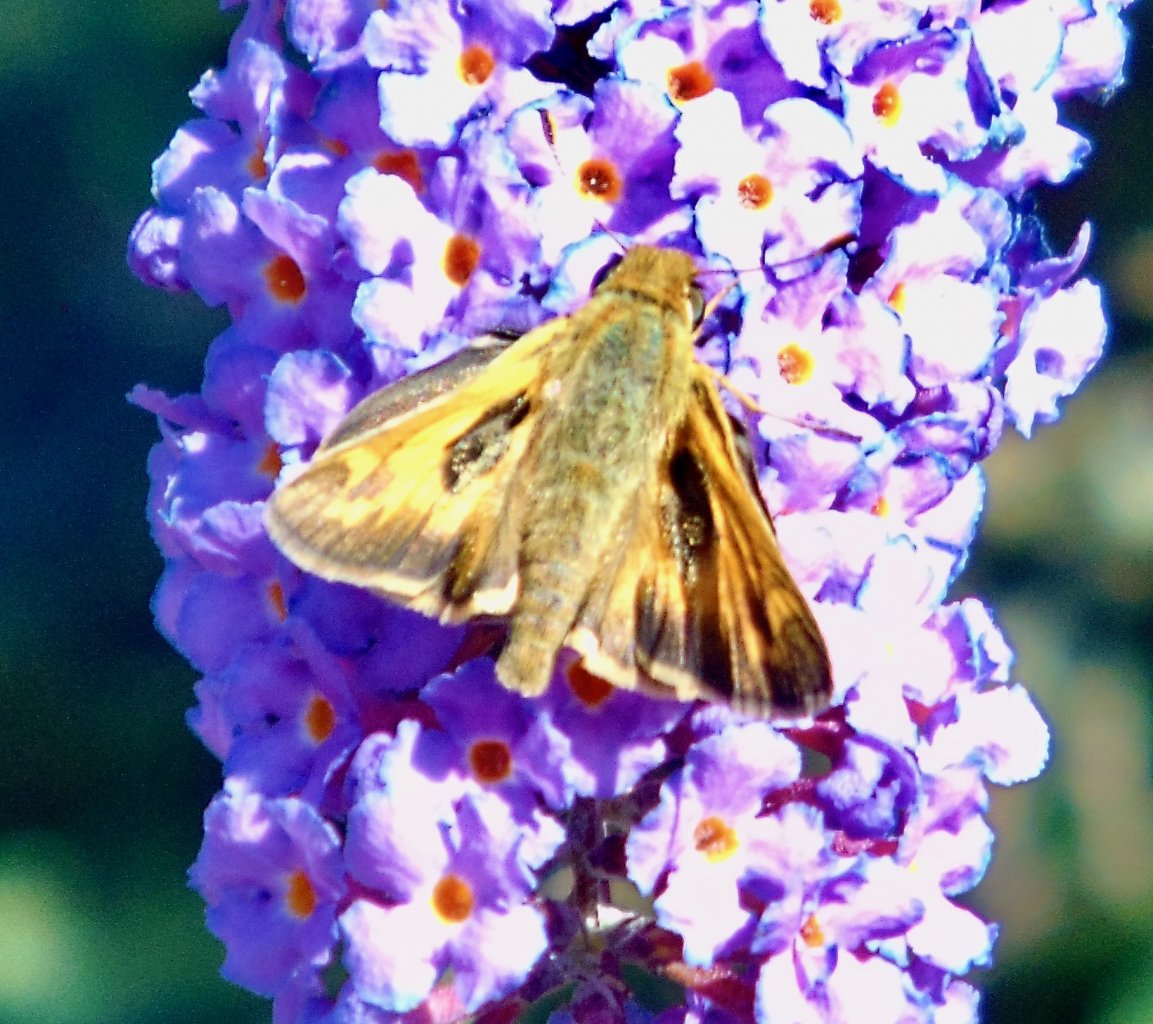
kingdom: Animalia
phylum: Arthropoda
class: Insecta
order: Lepidoptera
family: Hesperiidae
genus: Atalopedes
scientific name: Atalopedes campestris
